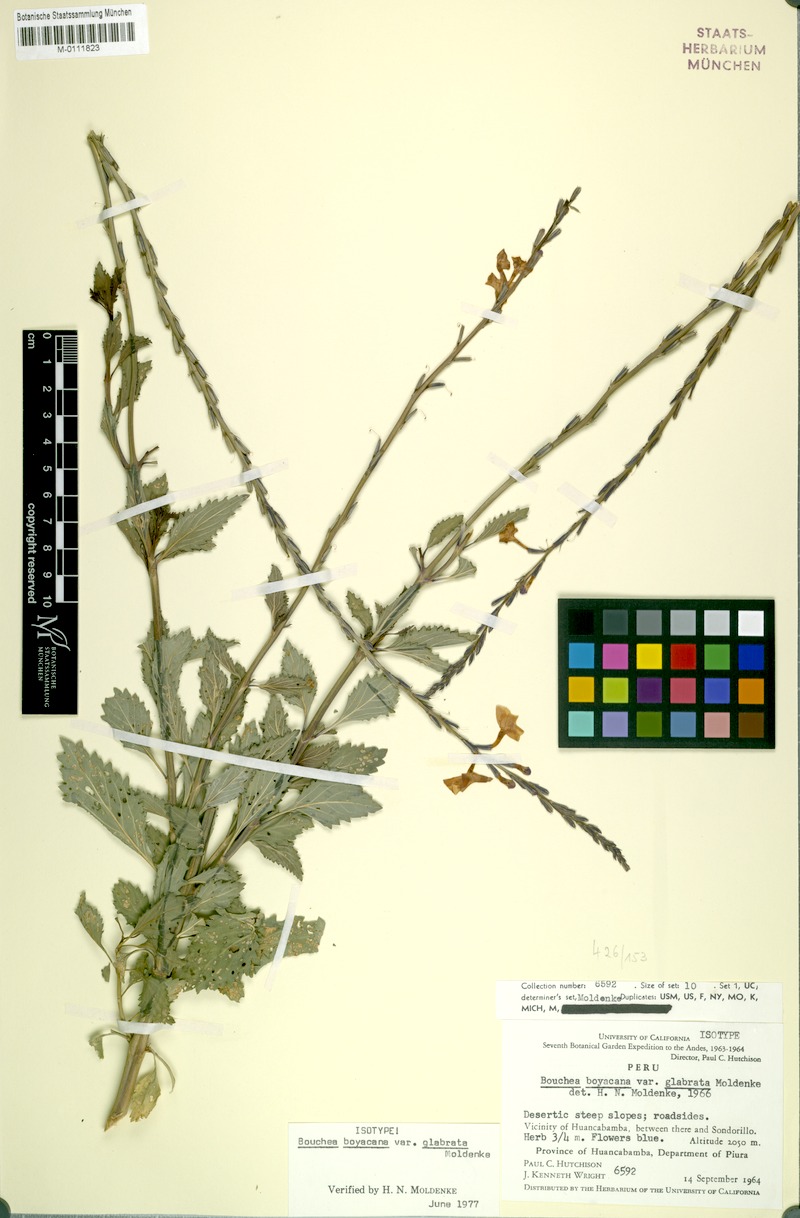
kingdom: Plantae
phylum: Tracheophyta
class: Magnoliopsida
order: Lamiales
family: Verbenaceae
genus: Bouchea
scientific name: Bouchea prismatica
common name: Vervine
